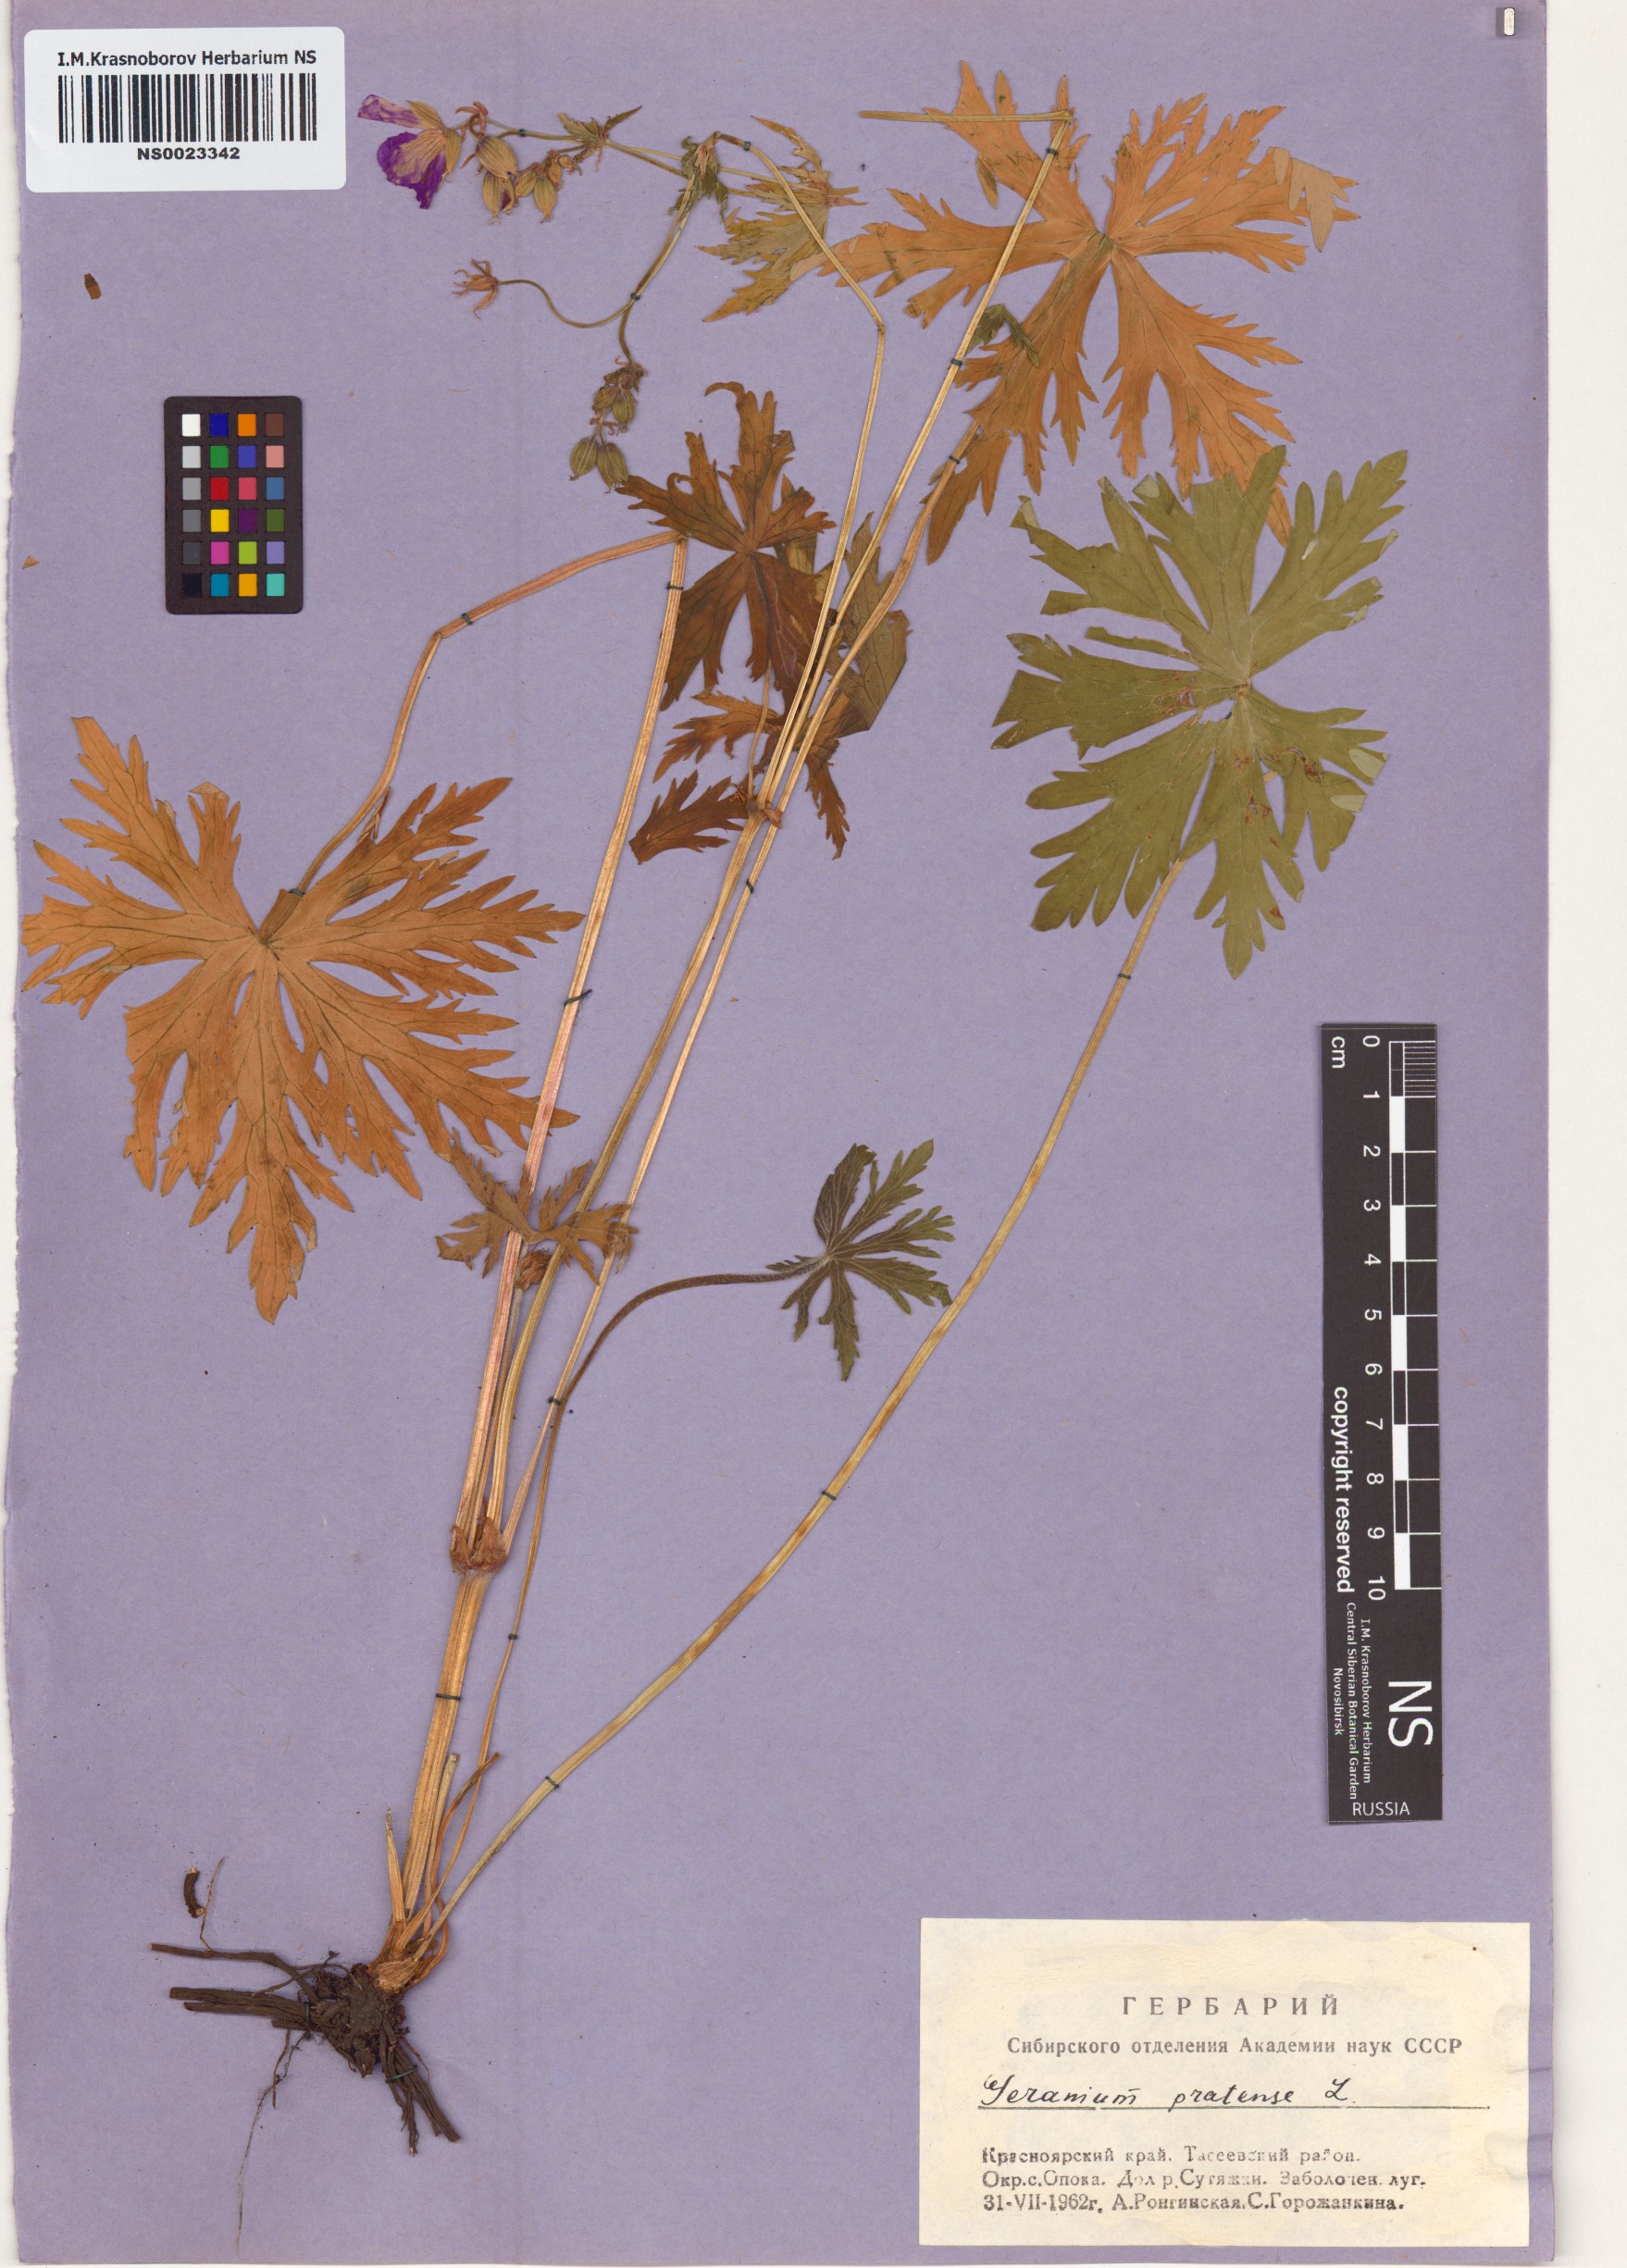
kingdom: Plantae
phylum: Tracheophyta
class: Magnoliopsida
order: Geraniales
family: Geraniaceae
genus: Geranium
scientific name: Geranium pratense
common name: Meadow crane's-bill
